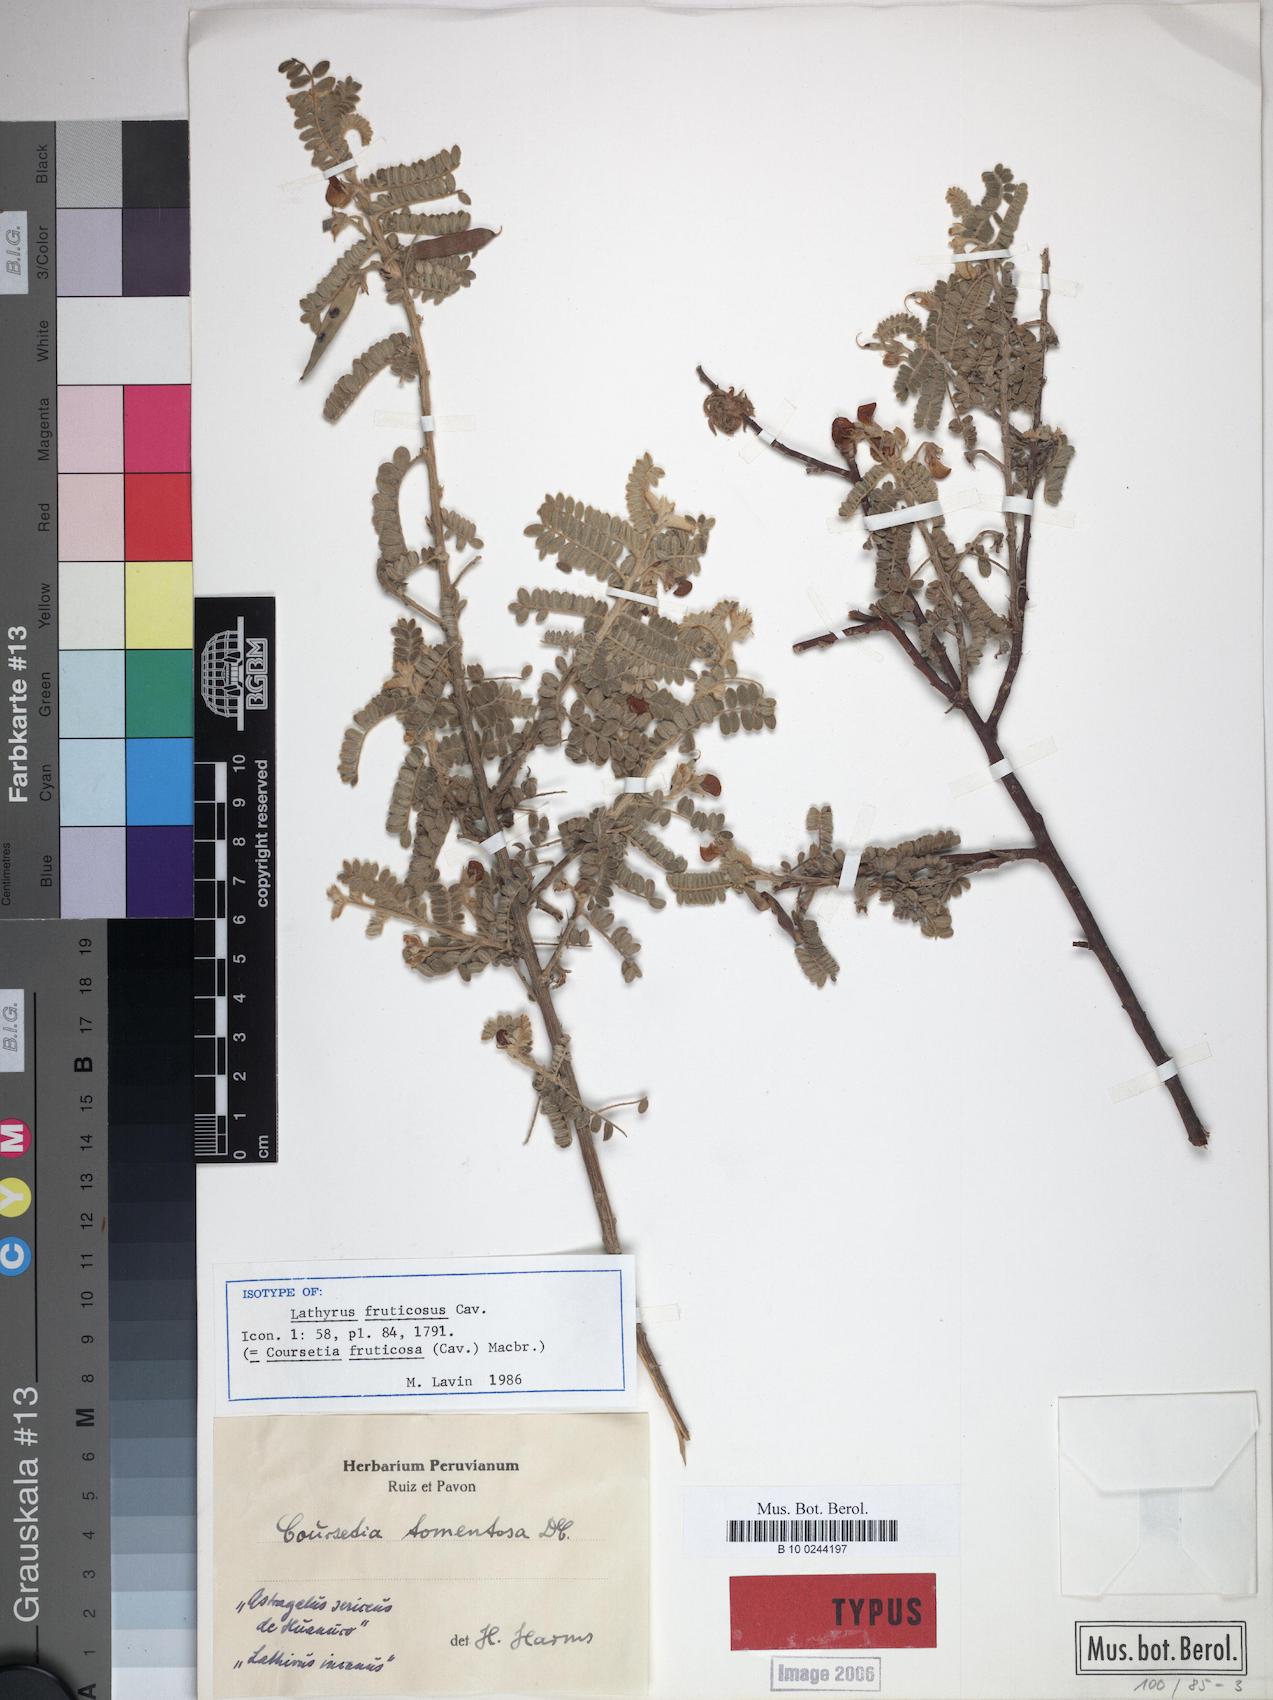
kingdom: Plantae
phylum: Tracheophyta
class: Magnoliopsida
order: Fabales
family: Fabaceae
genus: Coursetia
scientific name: Coursetia fruticosa
